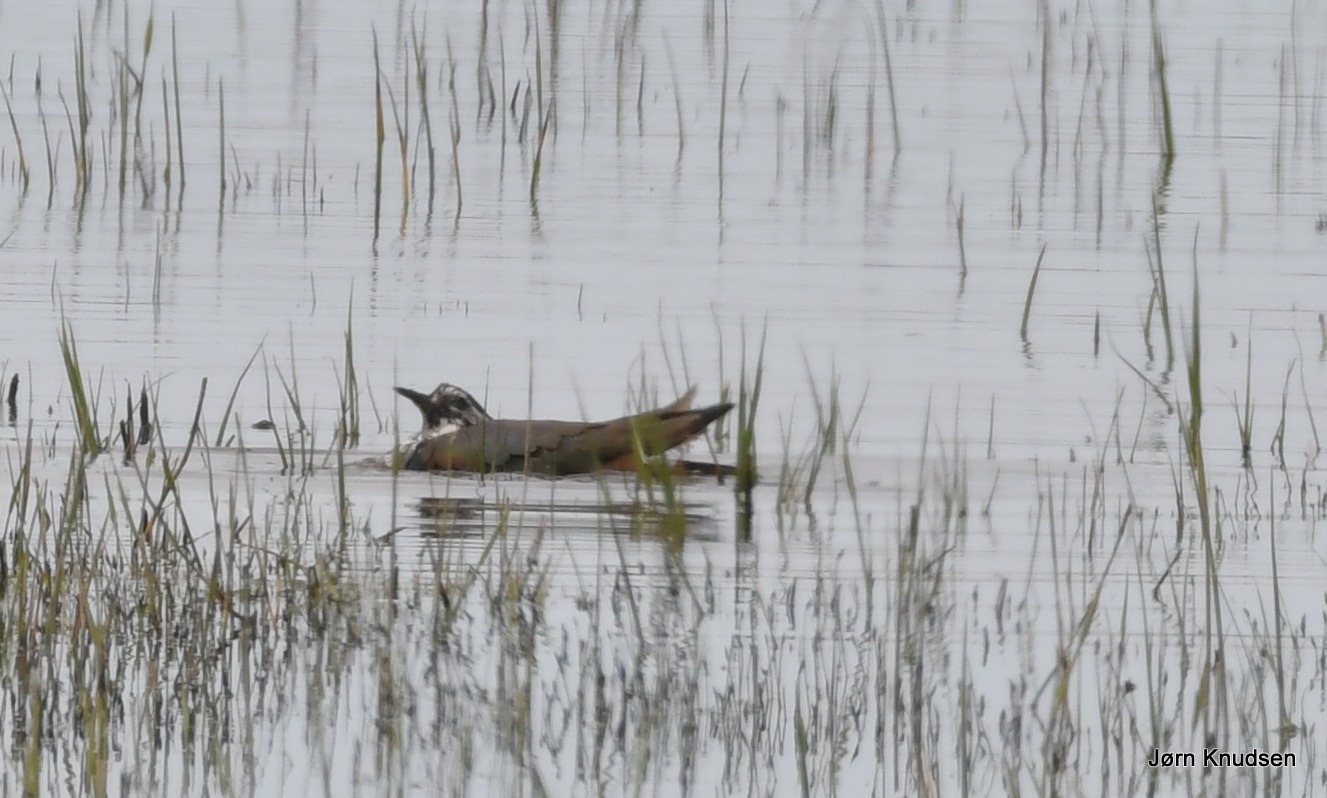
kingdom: Animalia
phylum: Chordata
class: Aves
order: Charadriiformes
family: Charadriidae
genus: Vanellus
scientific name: Vanellus vanellus
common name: Vibe
